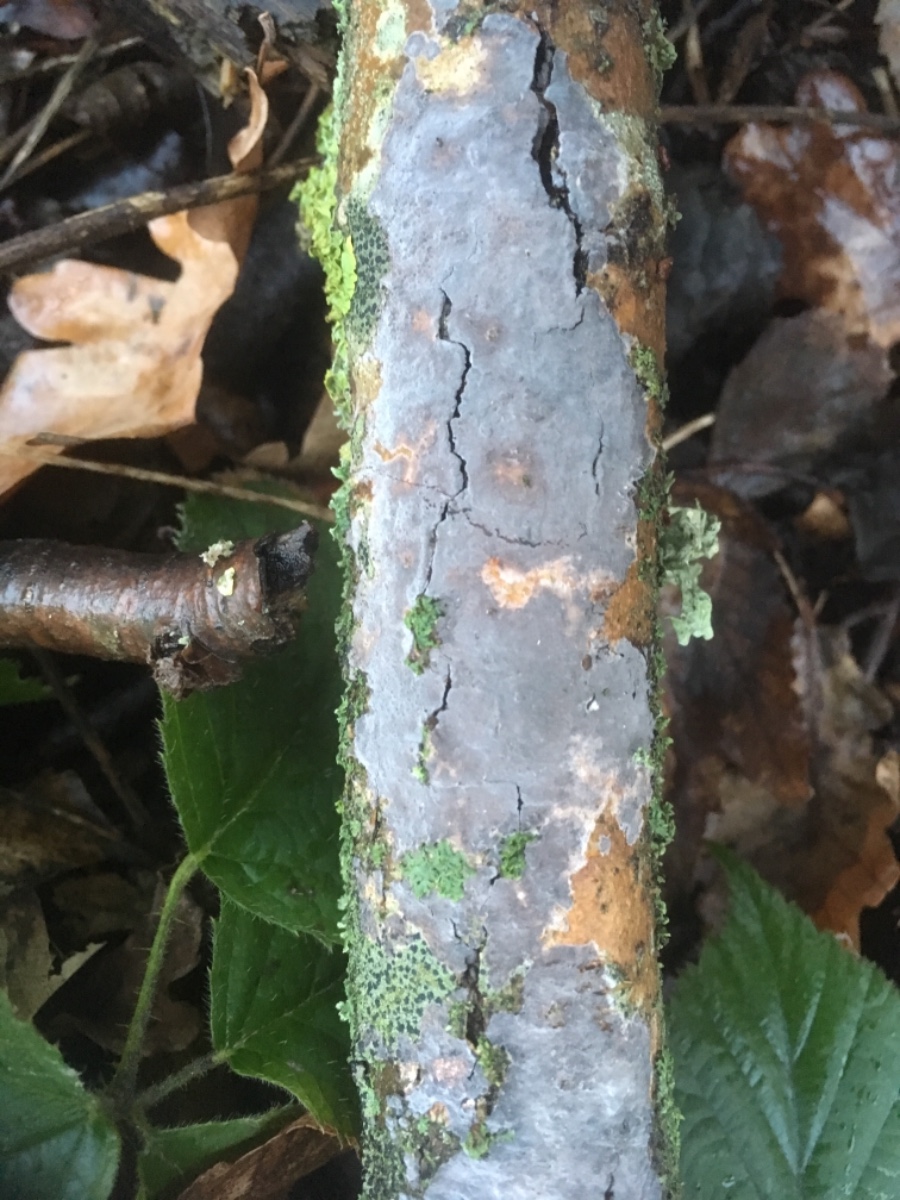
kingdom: Fungi
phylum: Basidiomycota
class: Agaricomycetes
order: Russulales
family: Peniophoraceae
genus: Peniophora
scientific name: Peniophora
